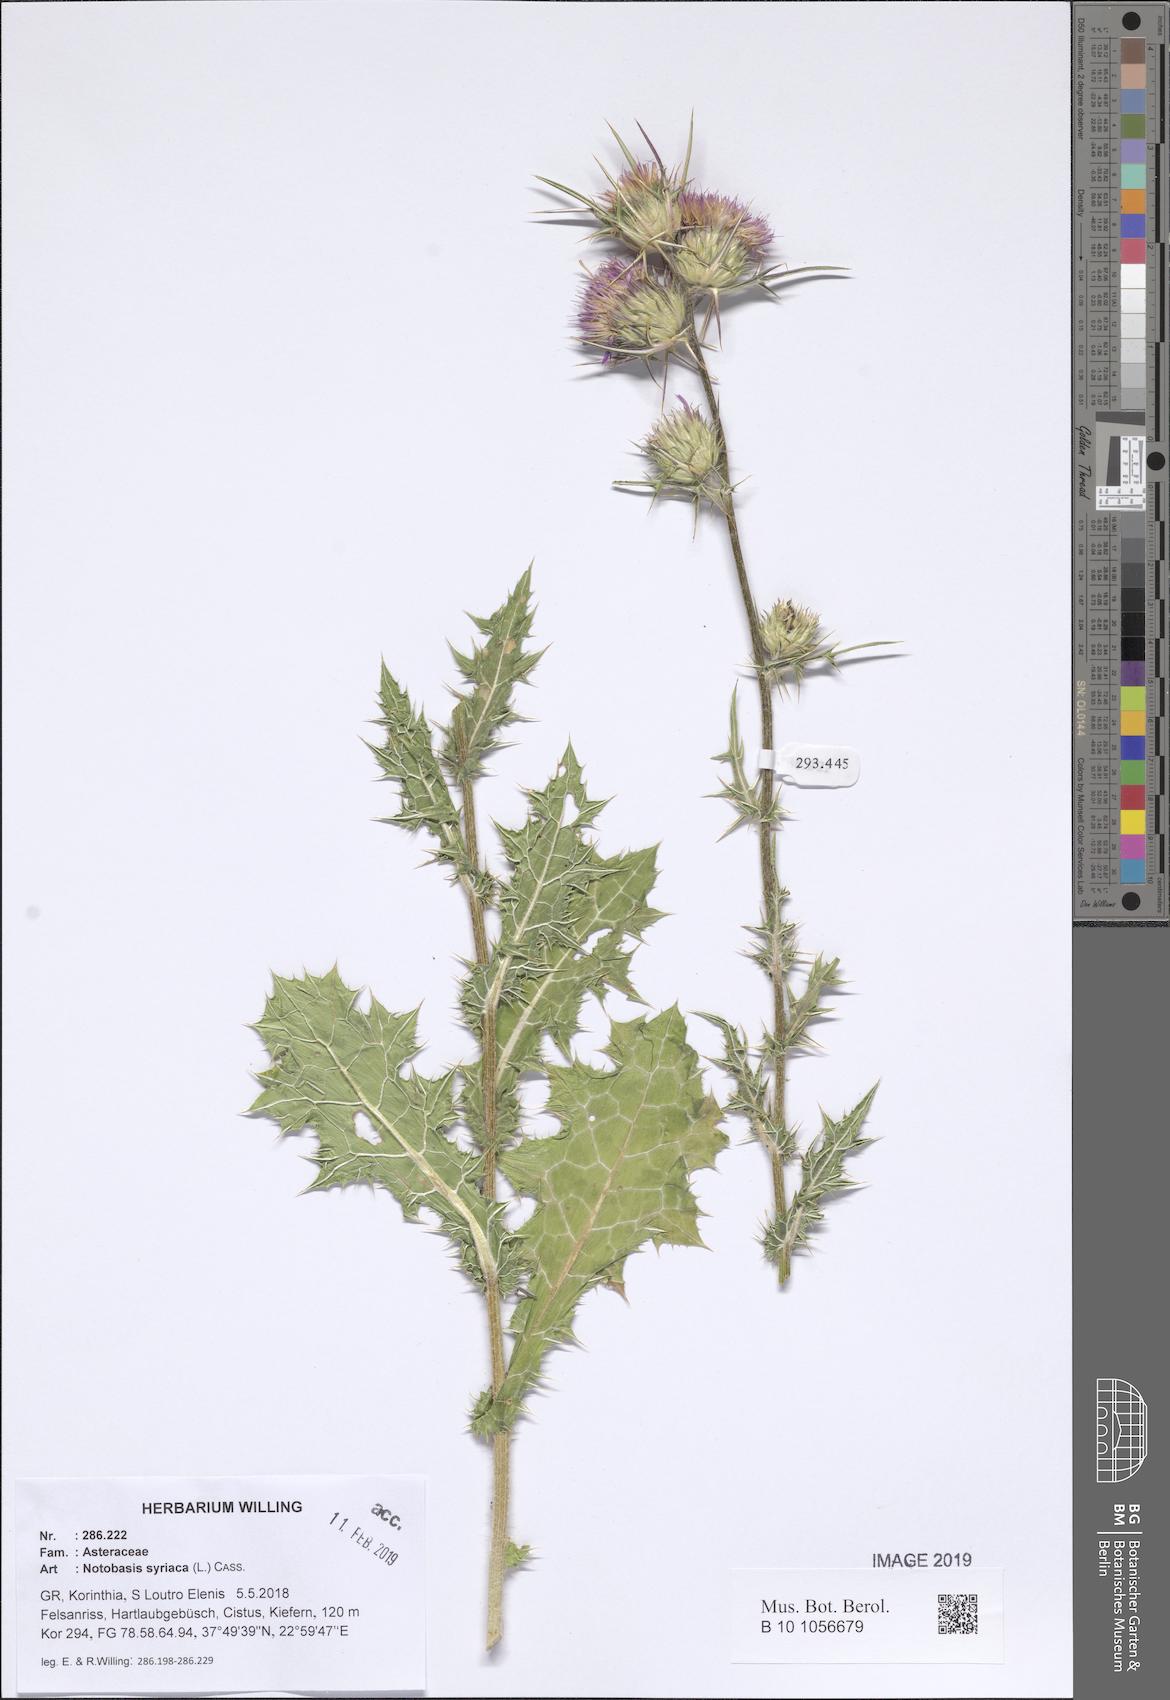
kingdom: Plantae
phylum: Tracheophyta
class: Magnoliopsida
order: Asterales
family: Asteraceae
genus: Notobasis
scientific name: Notobasis syriaca
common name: Syrian thistle
